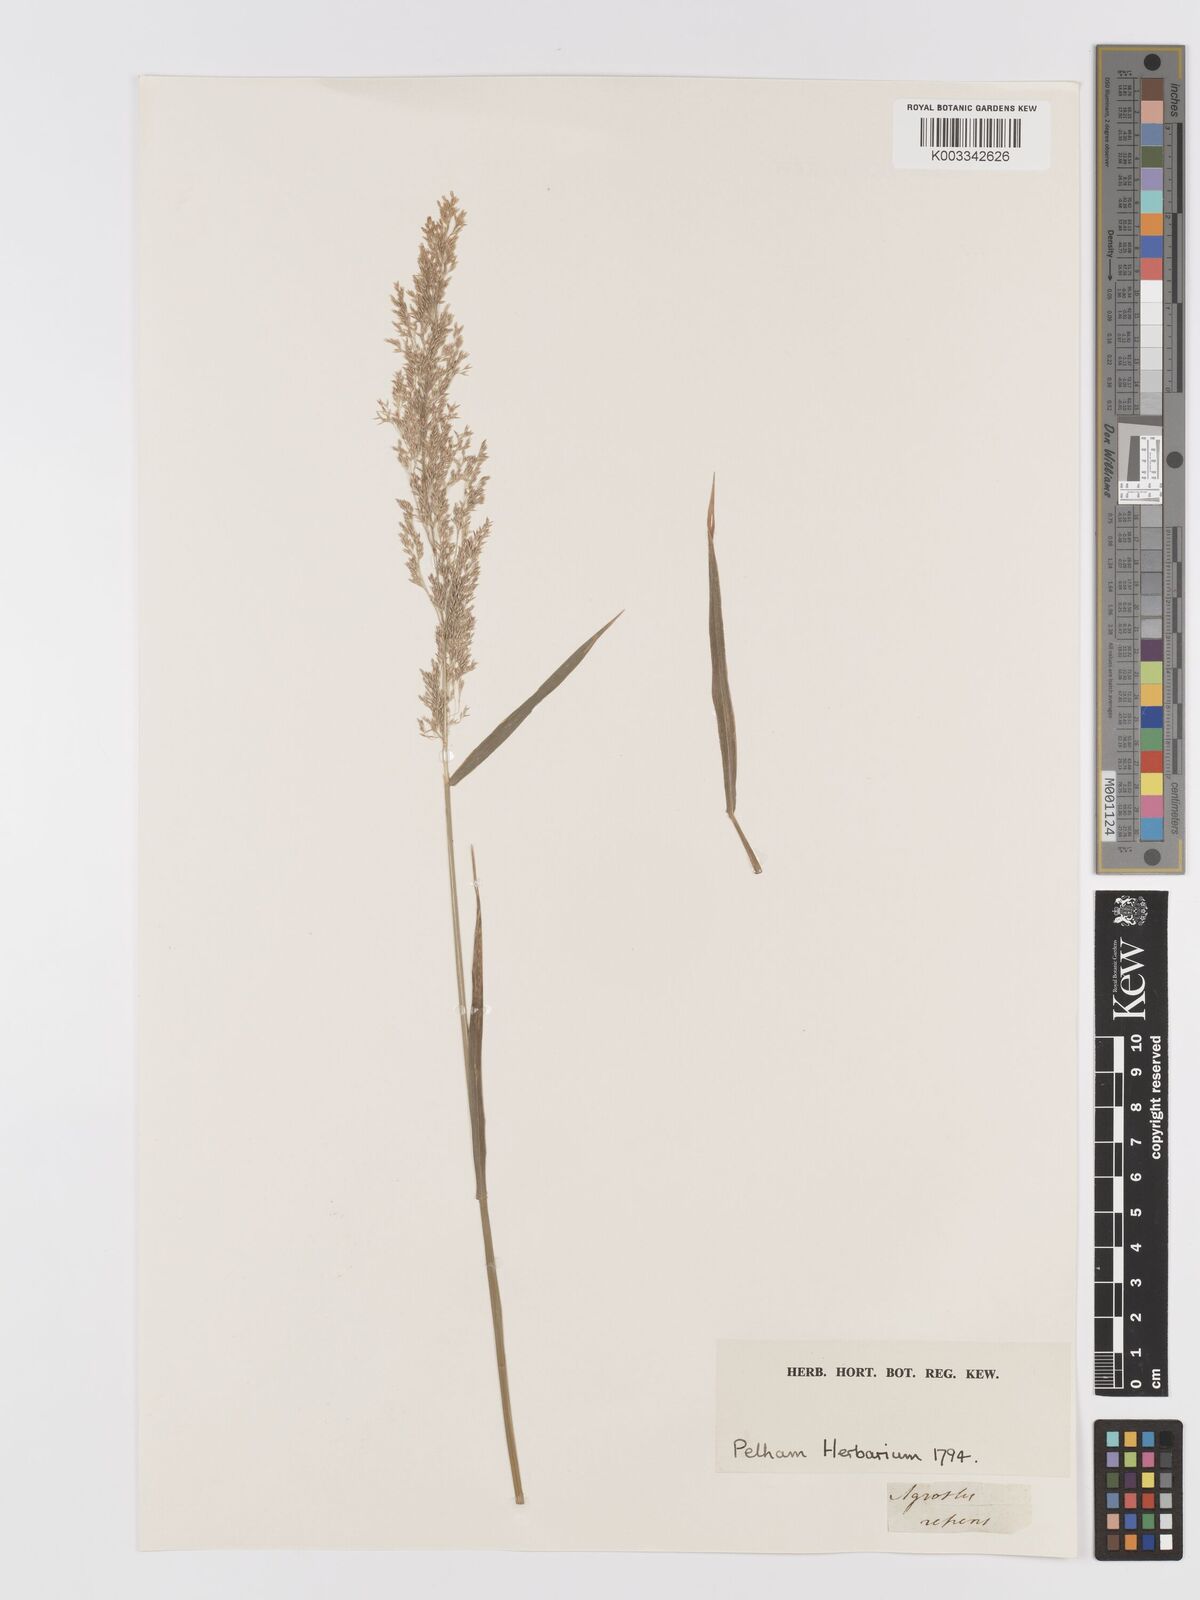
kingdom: Plantae
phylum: Tracheophyta
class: Liliopsida
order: Poales
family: Poaceae
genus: Agrostis
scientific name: Agrostis
